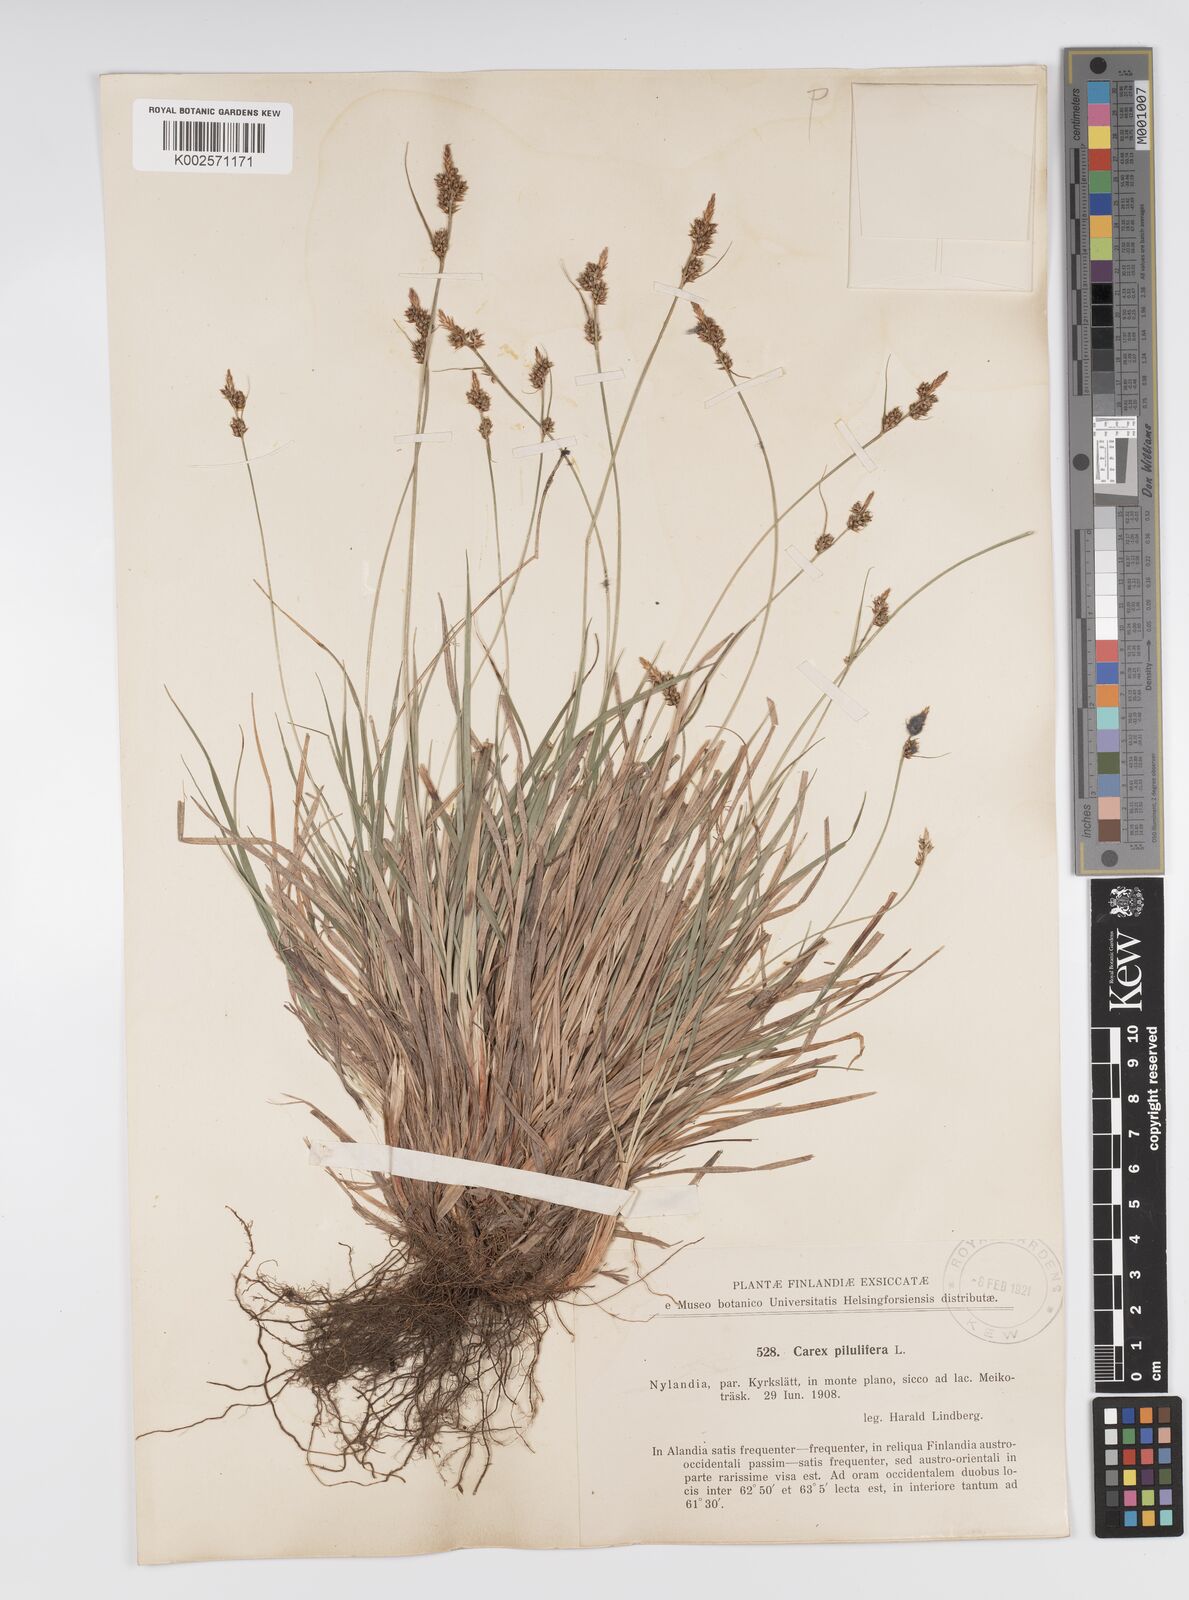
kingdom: Plantae
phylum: Tracheophyta
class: Liliopsida
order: Poales
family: Cyperaceae
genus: Carex
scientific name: Carex pilulifera
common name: Pill sedge
